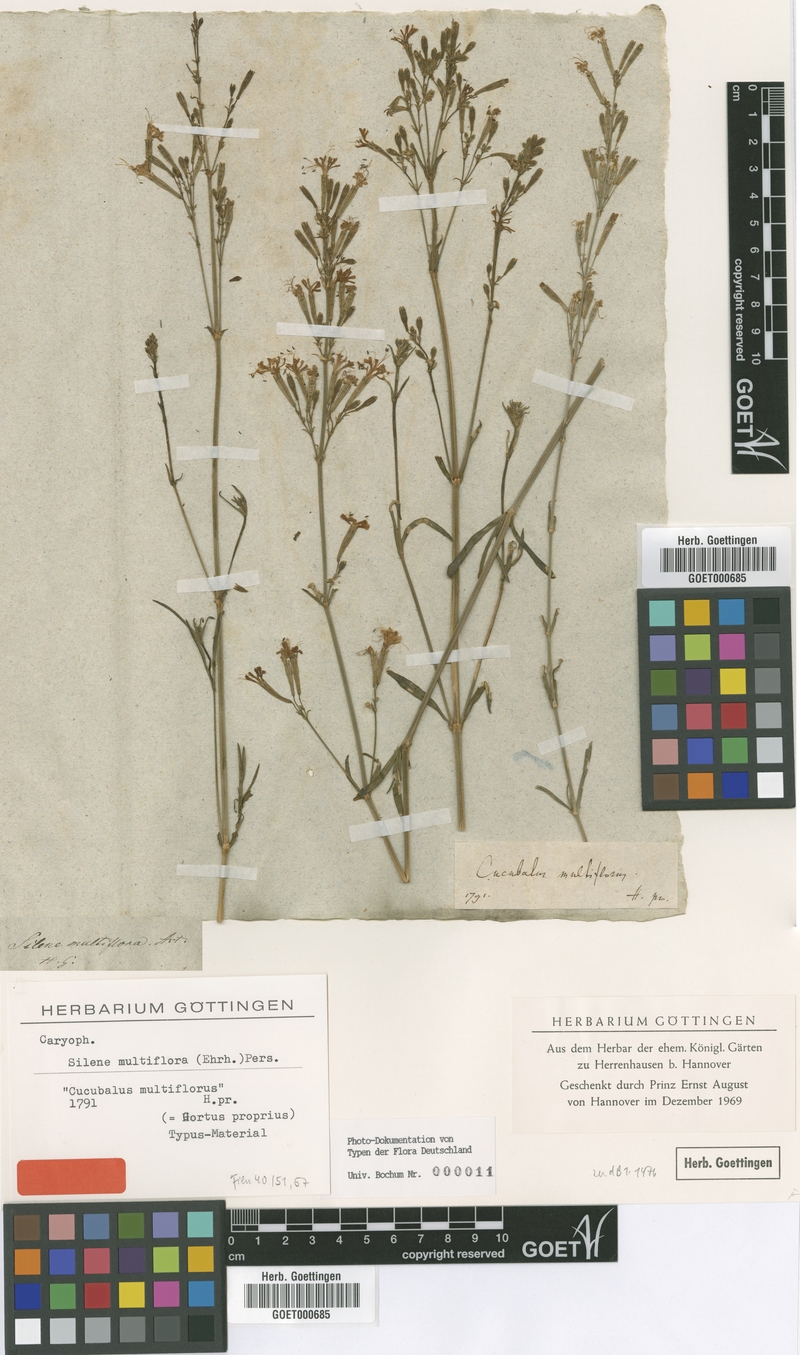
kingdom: Plantae
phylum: Tracheophyta
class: Magnoliopsida
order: Caryophyllales
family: Caryophyllaceae
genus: Silene
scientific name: Silene multiflora
